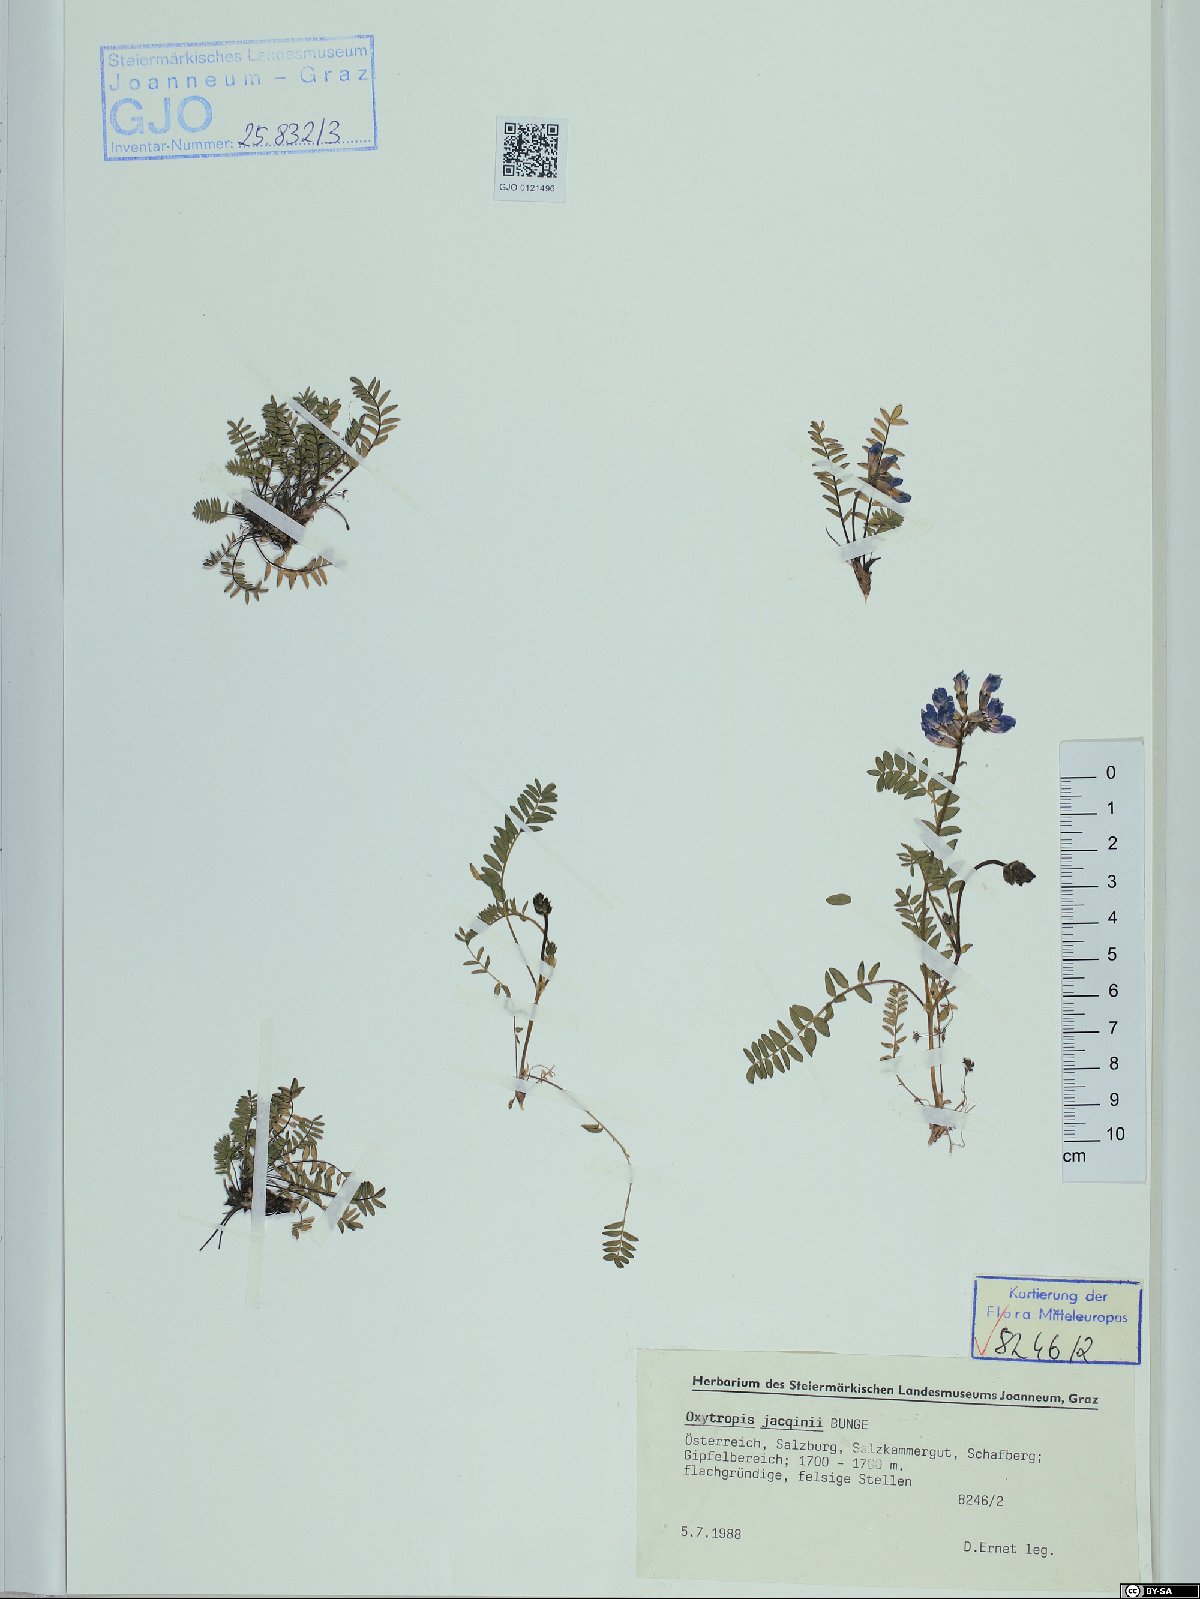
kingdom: Plantae
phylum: Tracheophyta
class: Magnoliopsida
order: Fabales
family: Fabaceae
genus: Oxytropis
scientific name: Oxytropis montana
